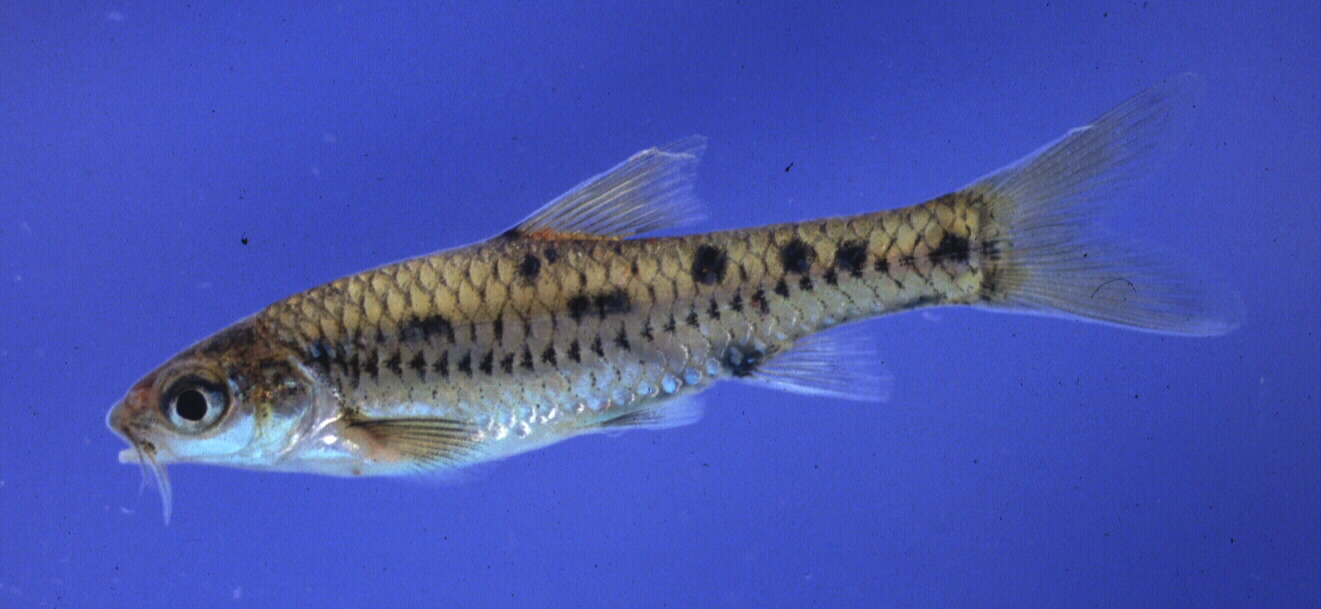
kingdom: Animalia
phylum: Chordata
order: Cypriniformes
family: Cyprinidae
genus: Enteromius
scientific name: Enteromius lineomaculatus
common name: Line-spotted barb
